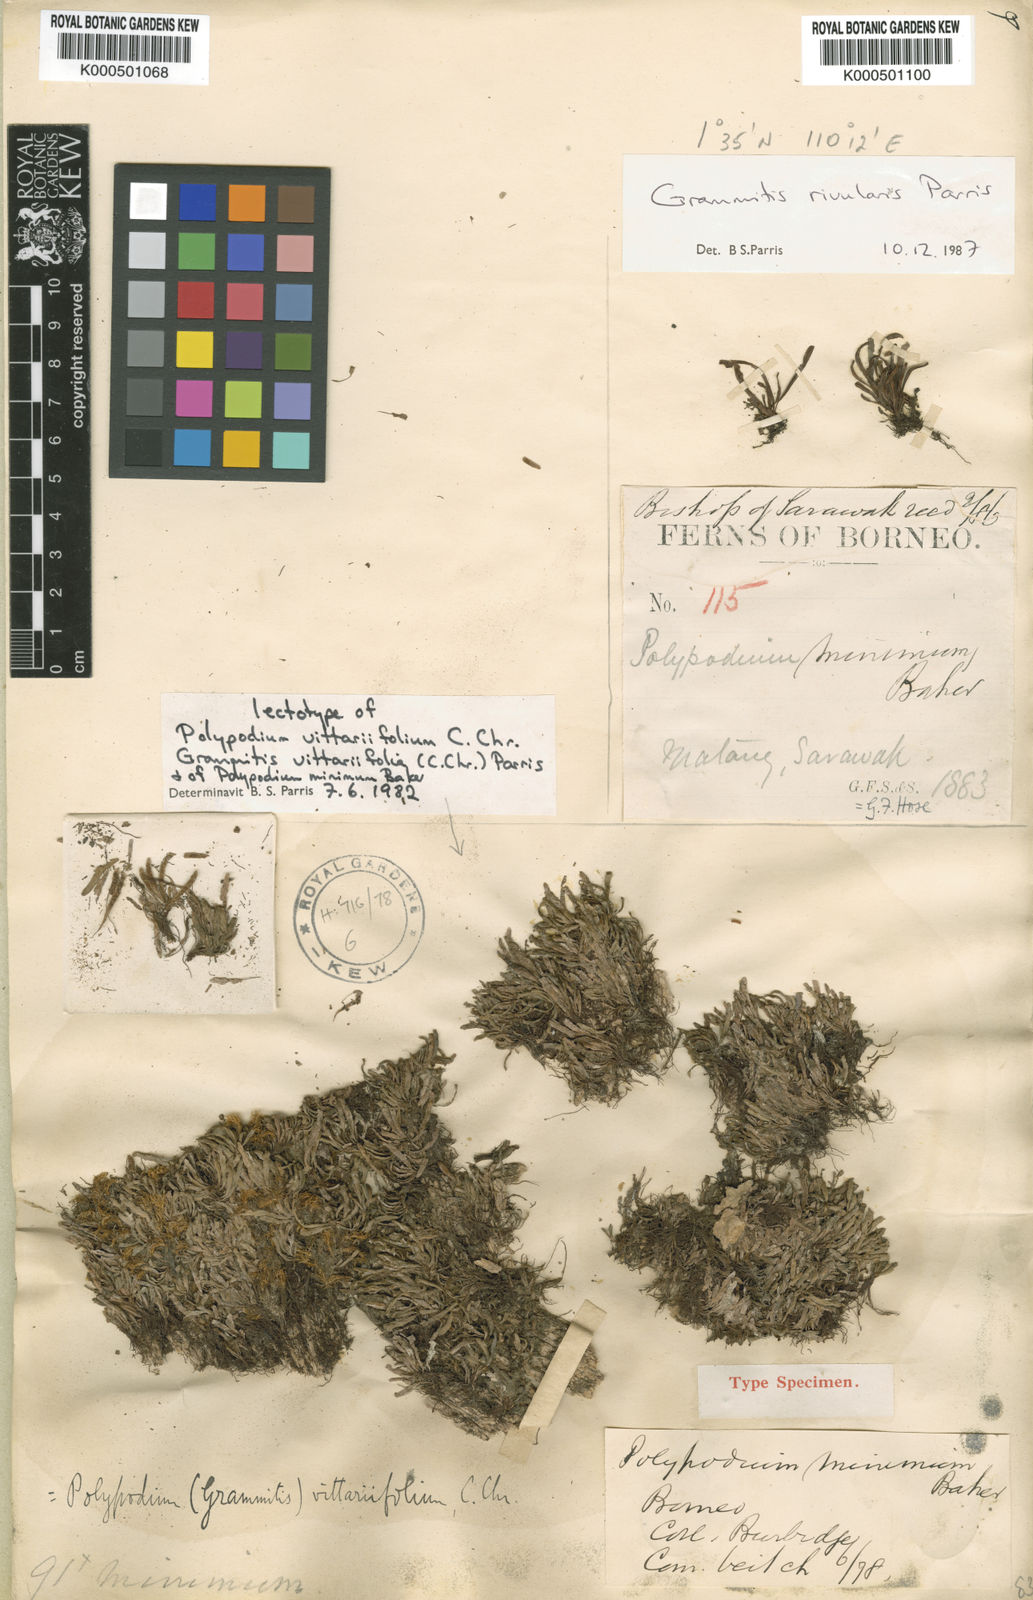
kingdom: Plantae
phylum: Tracheophyta
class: Polypodiopsida
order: Polypodiales
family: Polypodiaceae
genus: Oreogrammitis
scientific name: Oreogrammitis vittariifolia
